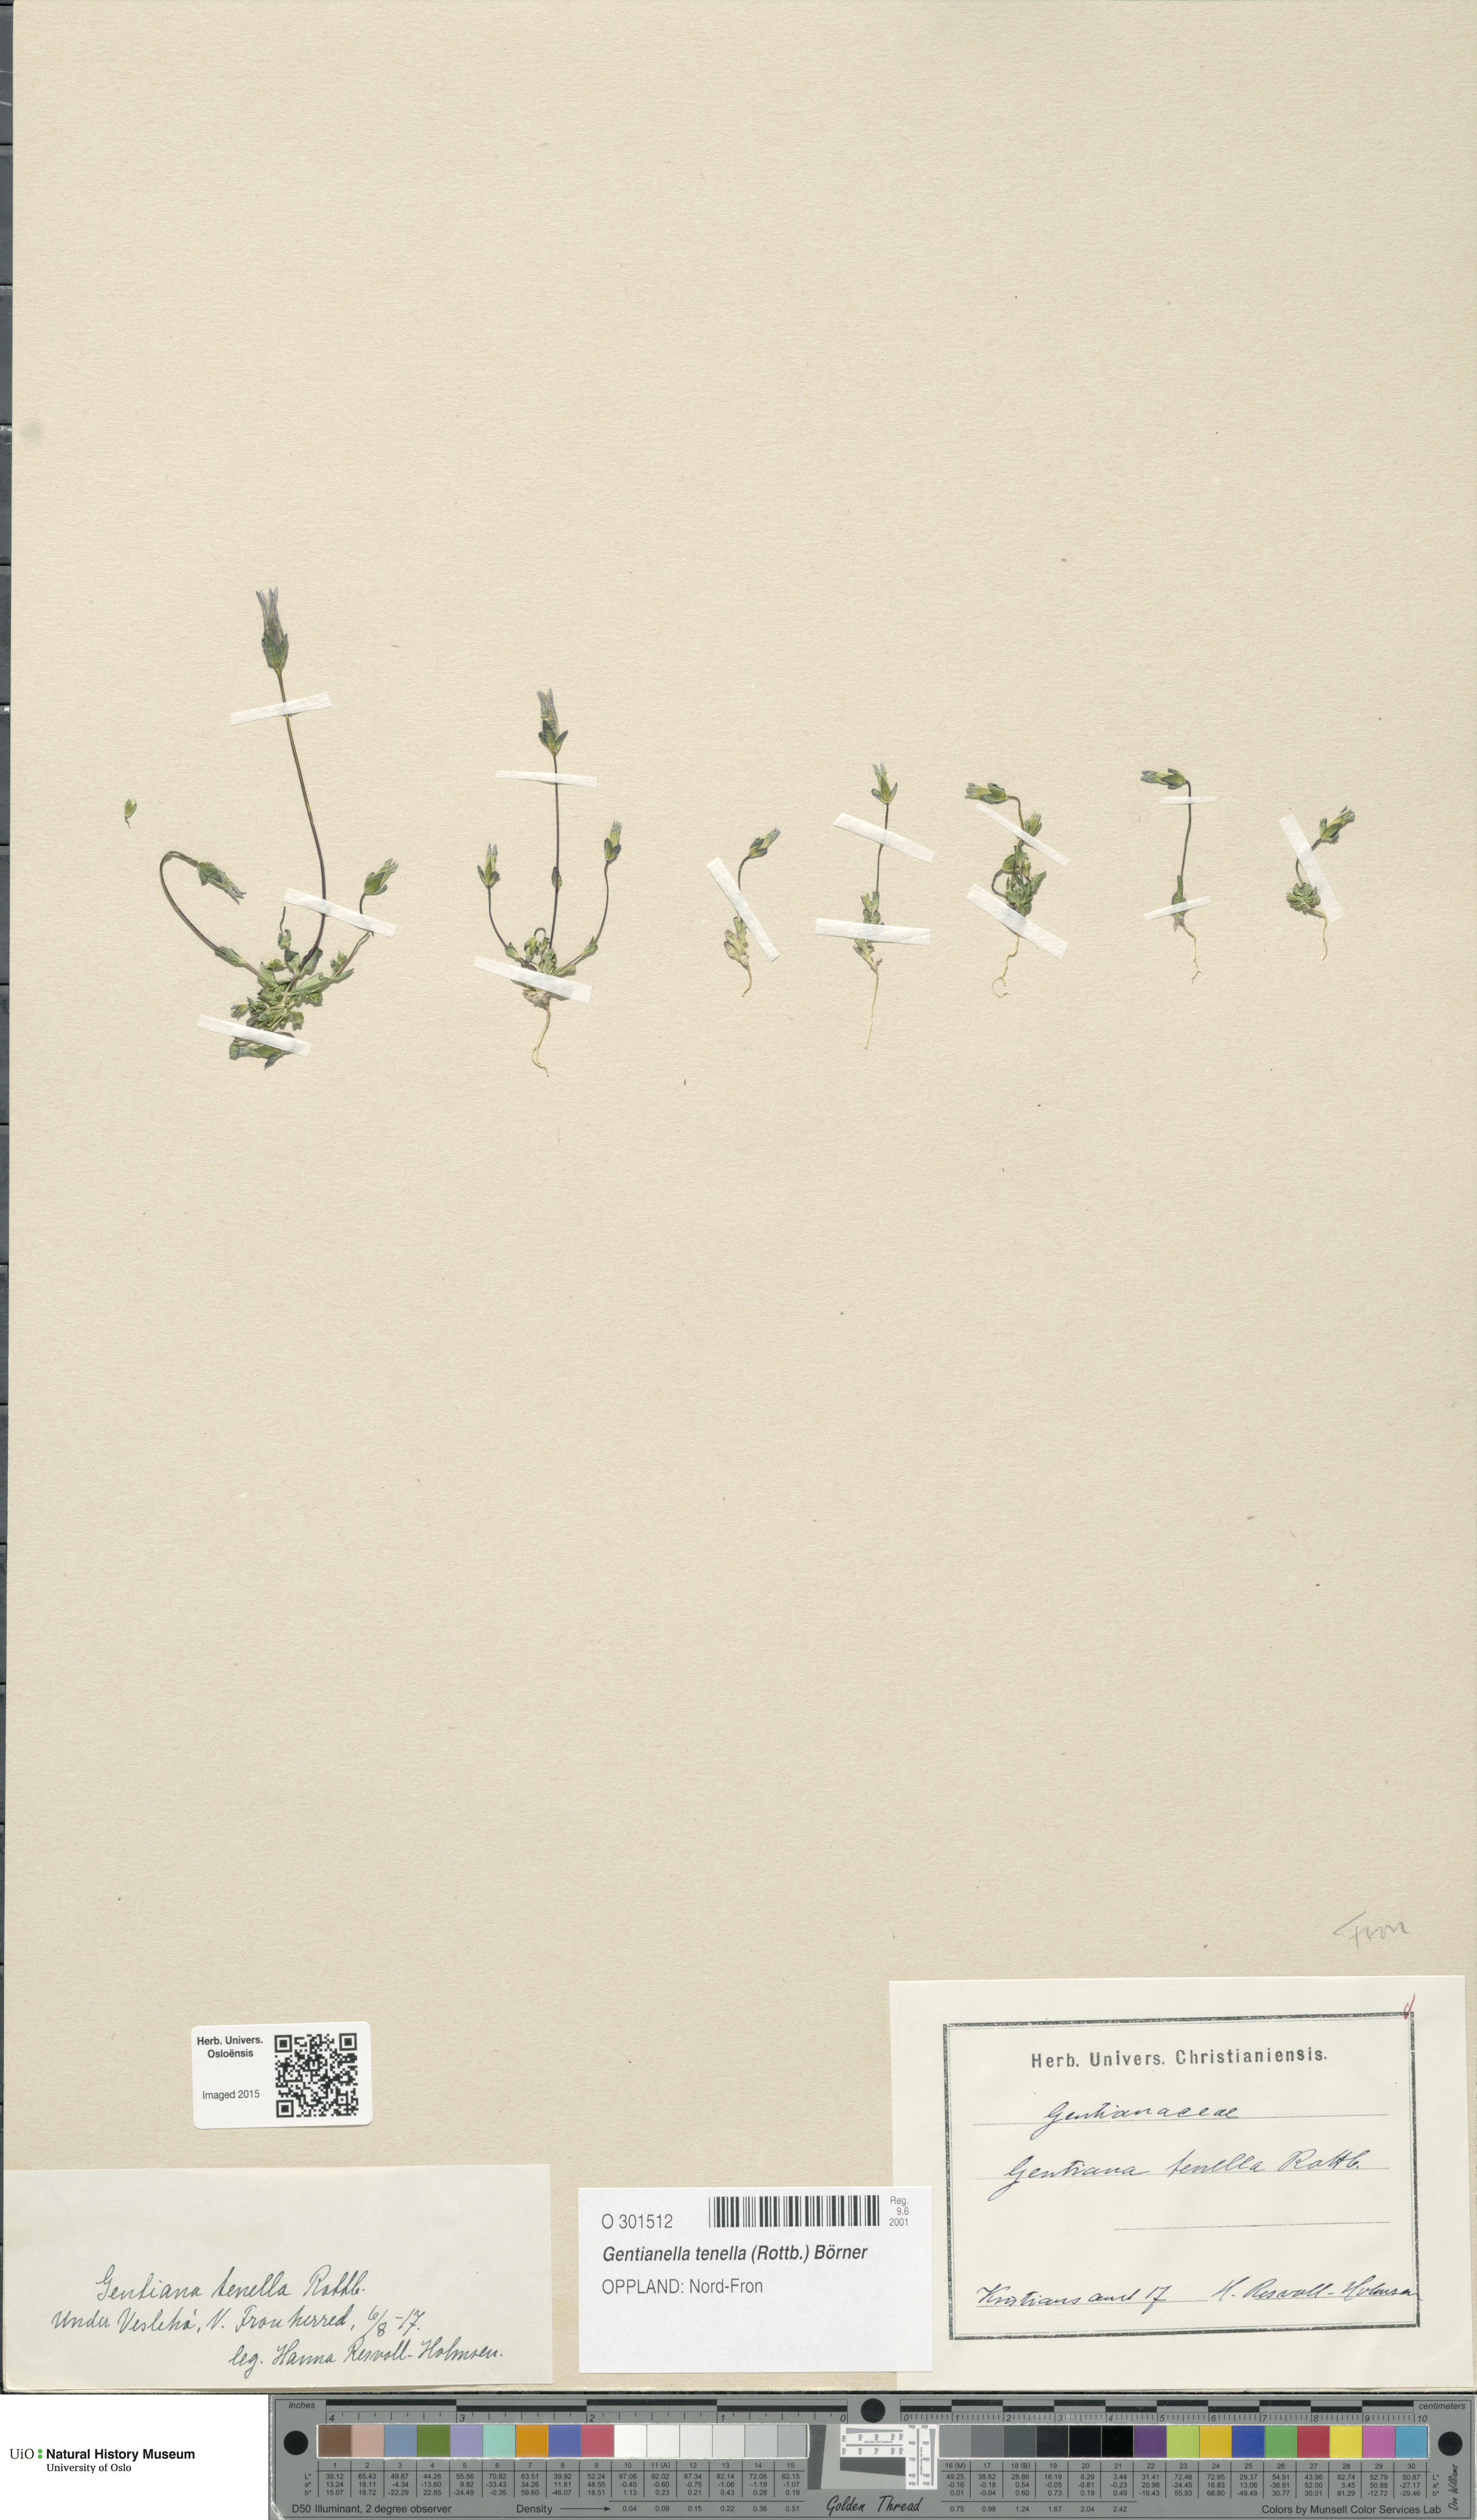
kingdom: Plantae
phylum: Tracheophyta
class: Magnoliopsida
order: Gentianales
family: Gentianaceae
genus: Comastoma
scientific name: Comastoma tenellum
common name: Dane's dwarf gentian
